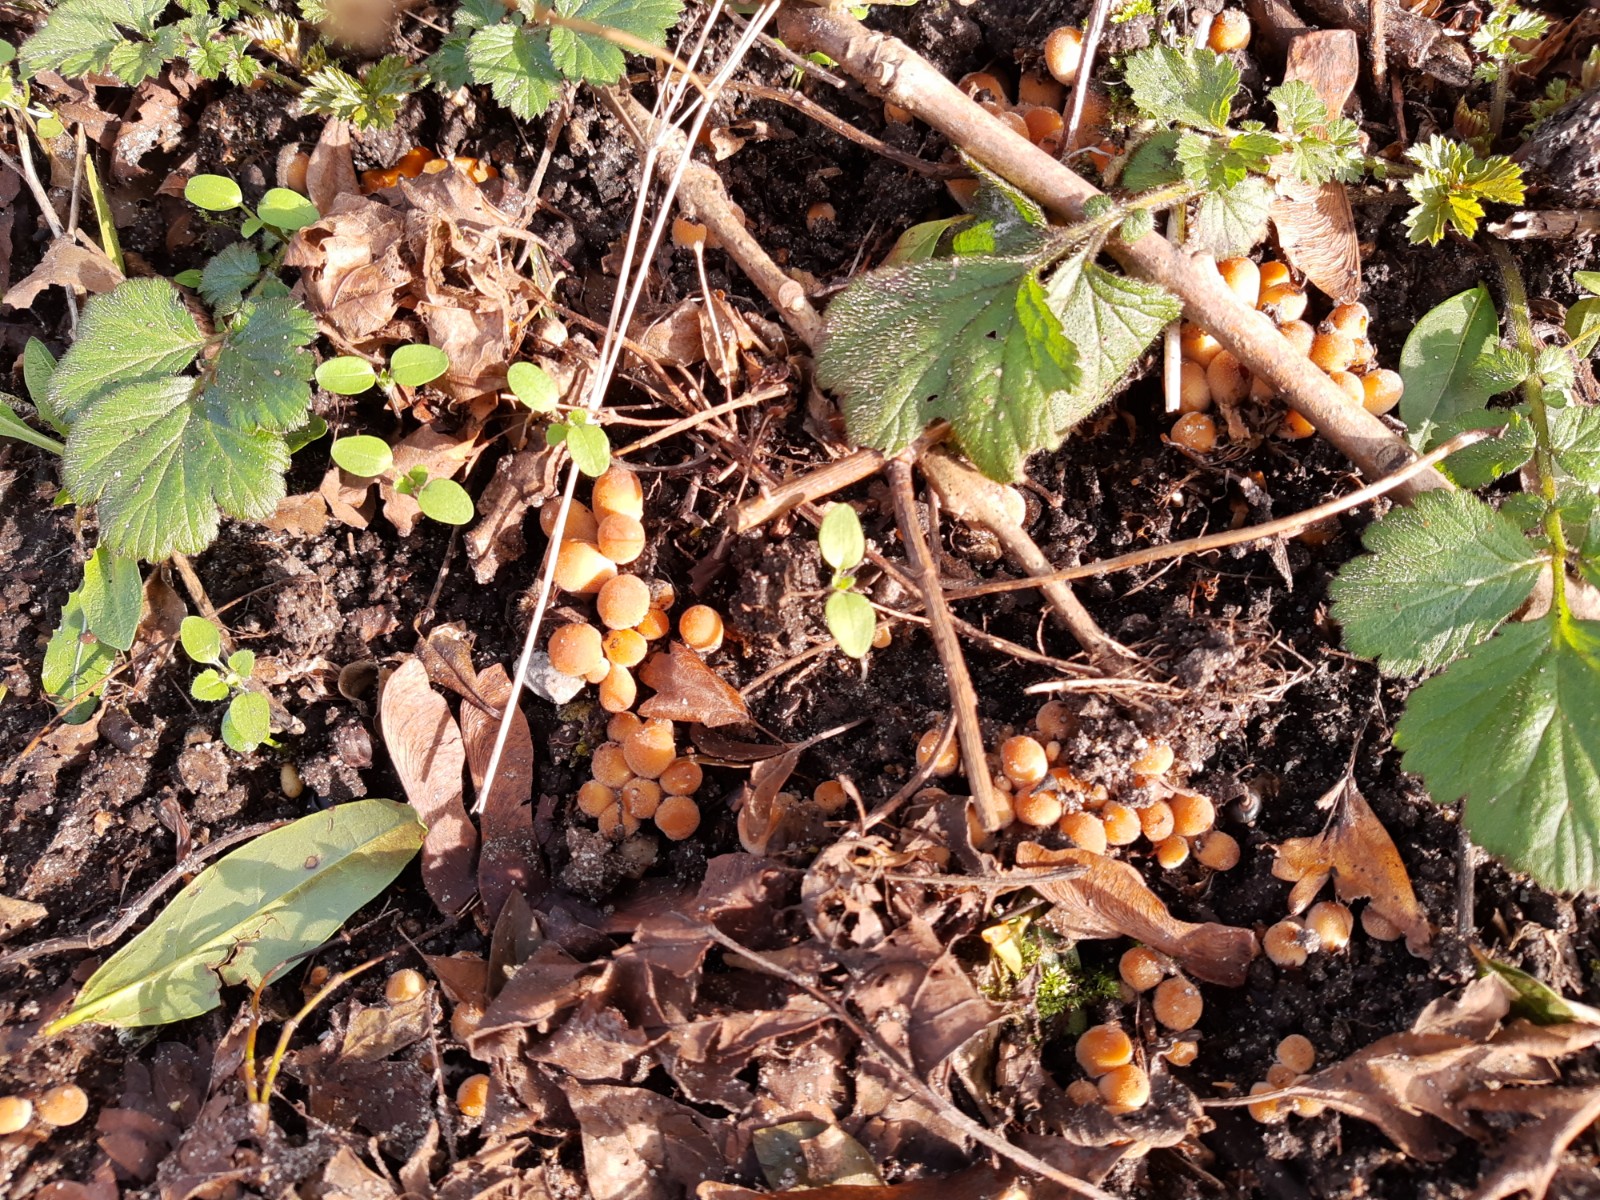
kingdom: Fungi
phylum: Basidiomycota
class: Agaricomycetes
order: Agaricales
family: Psathyrellaceae
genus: Coprinellus
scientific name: Coprinellus micaceus
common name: glimmer-blækhat
